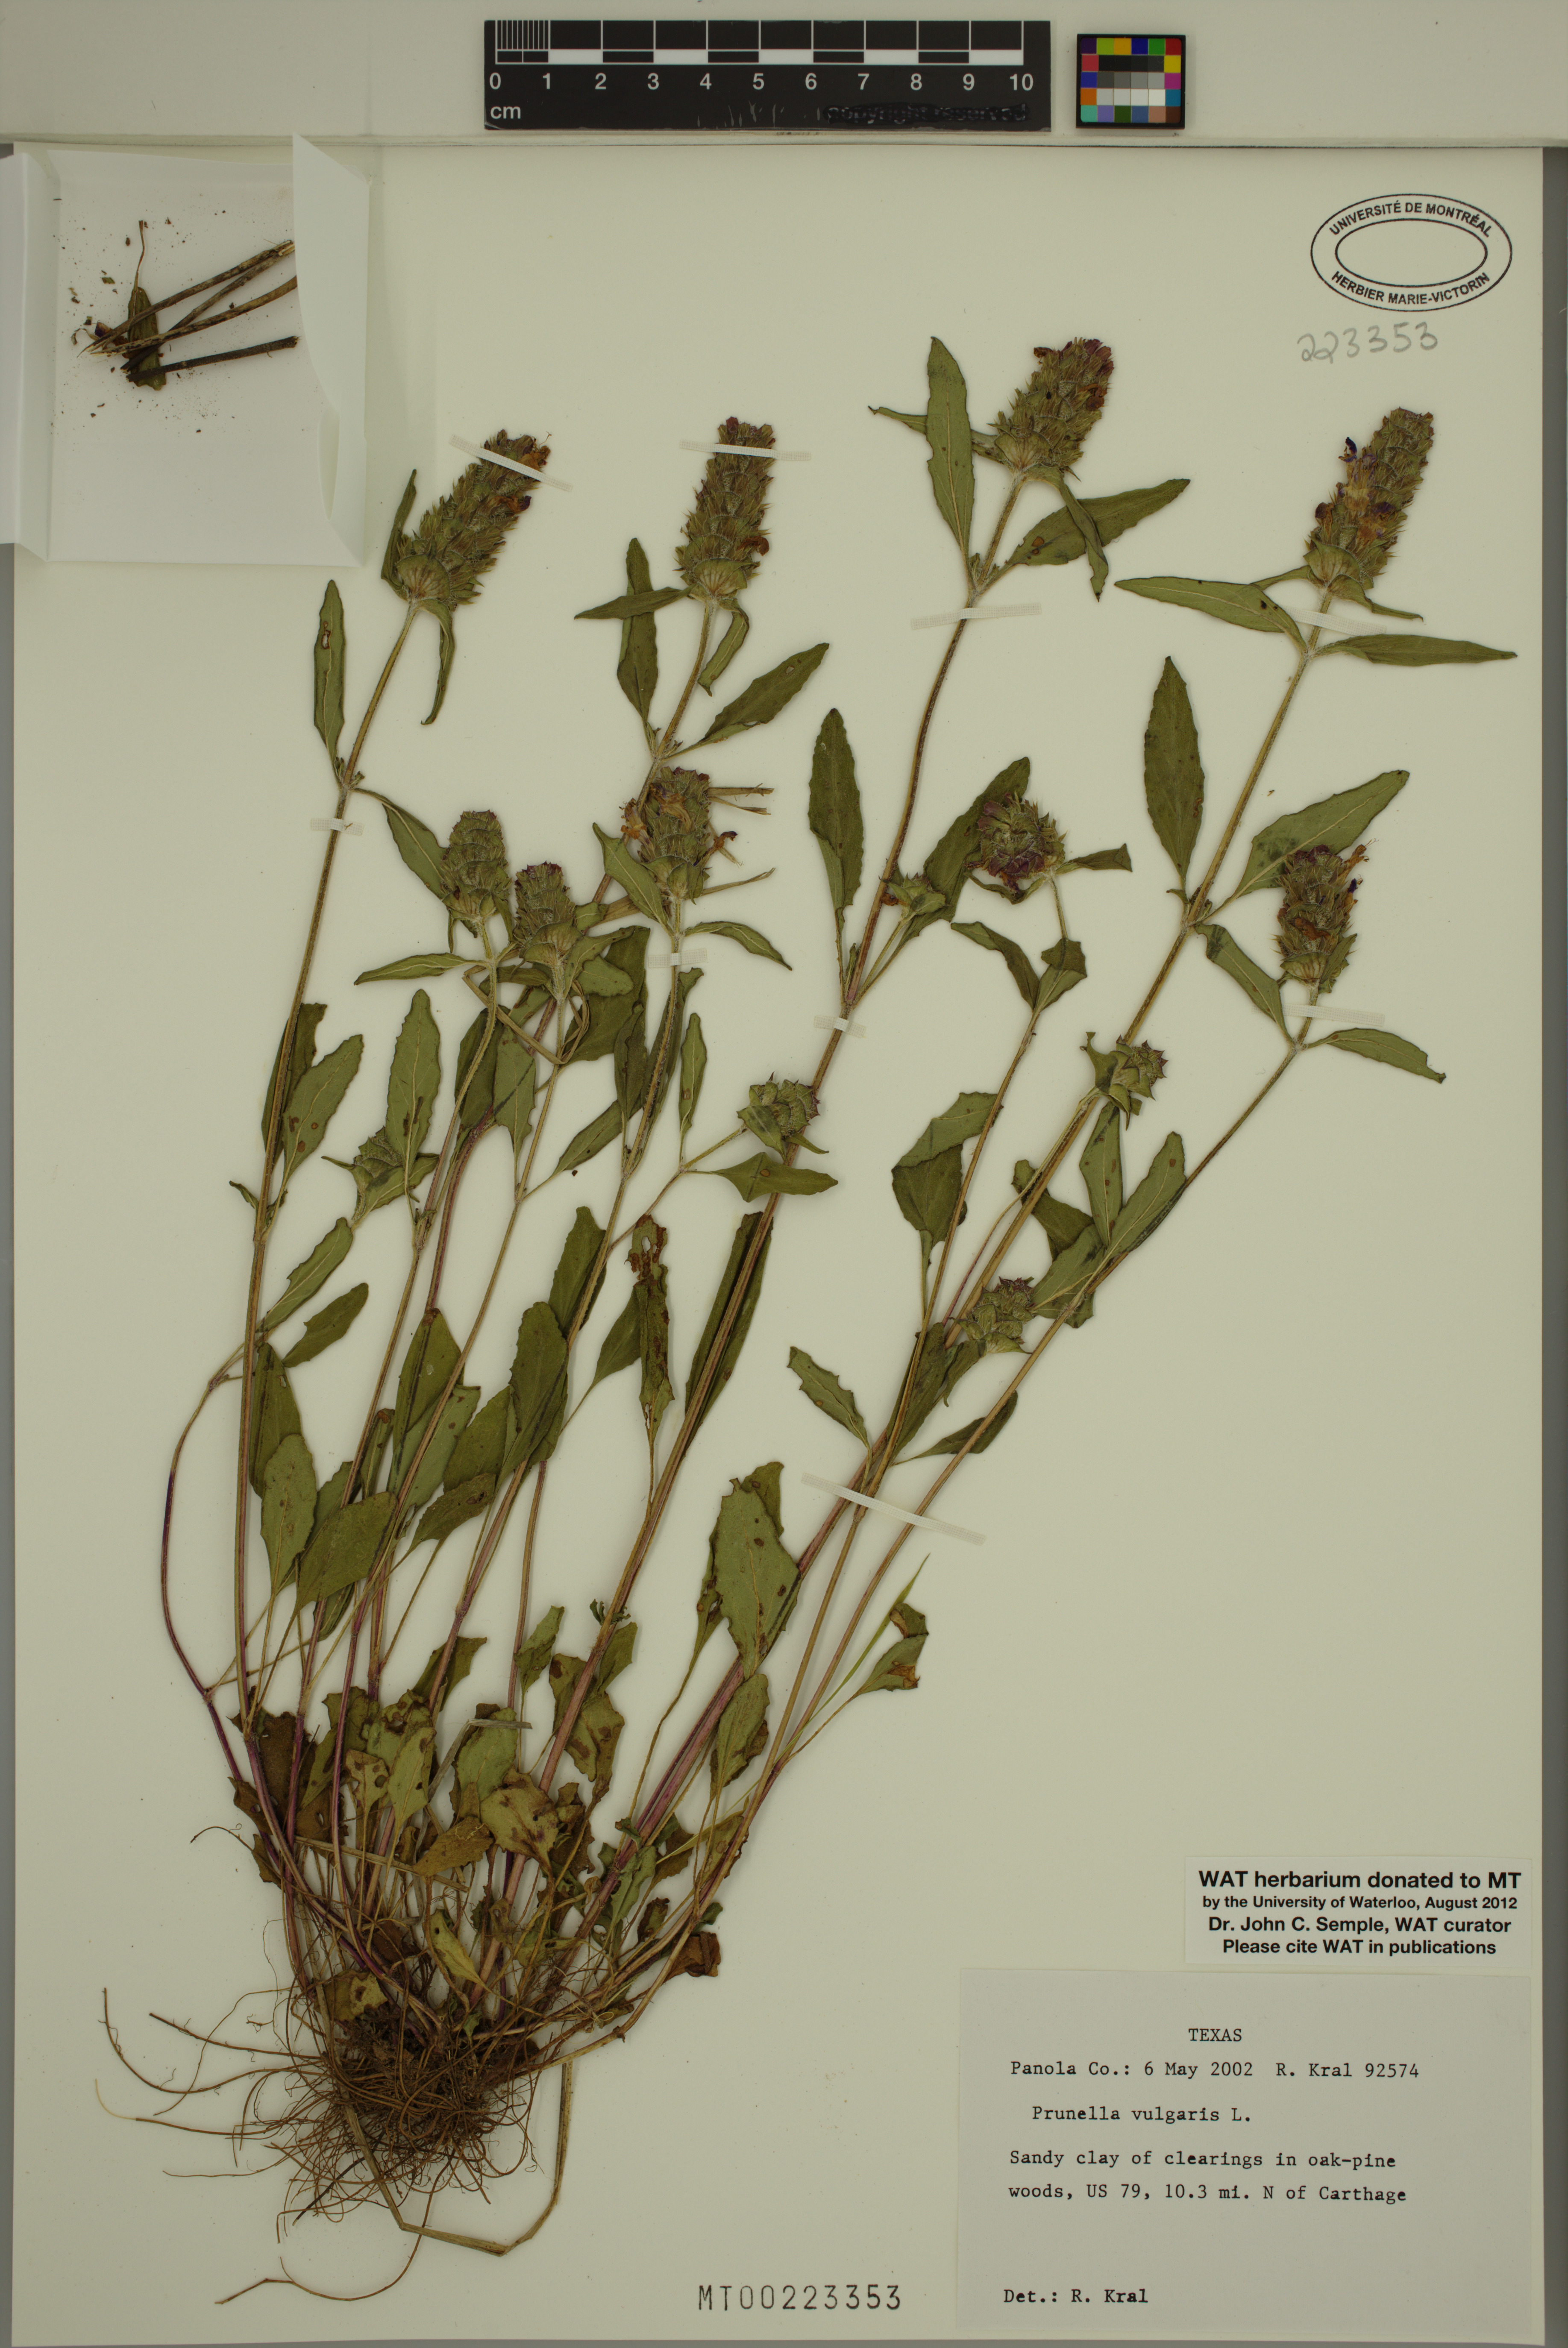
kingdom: Plantae
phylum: Tracheophyta
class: Magnoliopsida
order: Lamiales
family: Lamiaceae
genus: Prunella
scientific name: Prunella vulgaris
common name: Heal-all
